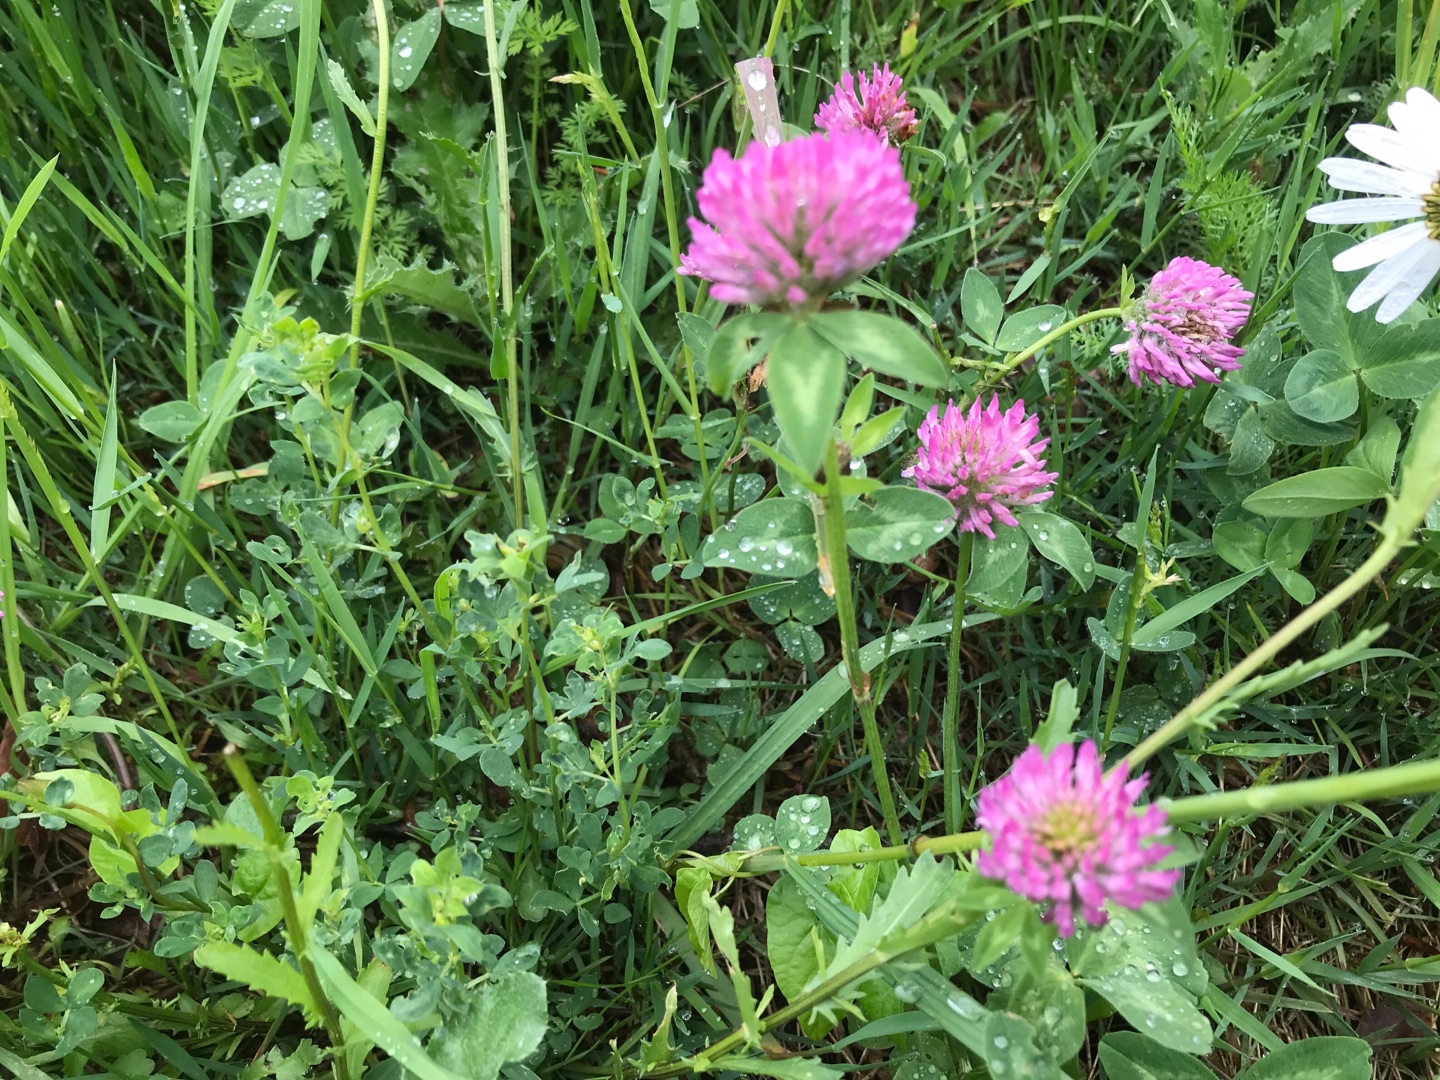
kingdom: Plantae
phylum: Tracheophyta
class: Magnoliopsida
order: Fabales
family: Fabaceae
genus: Trifolium
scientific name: Trifolium pratense
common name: Rød-kløver
